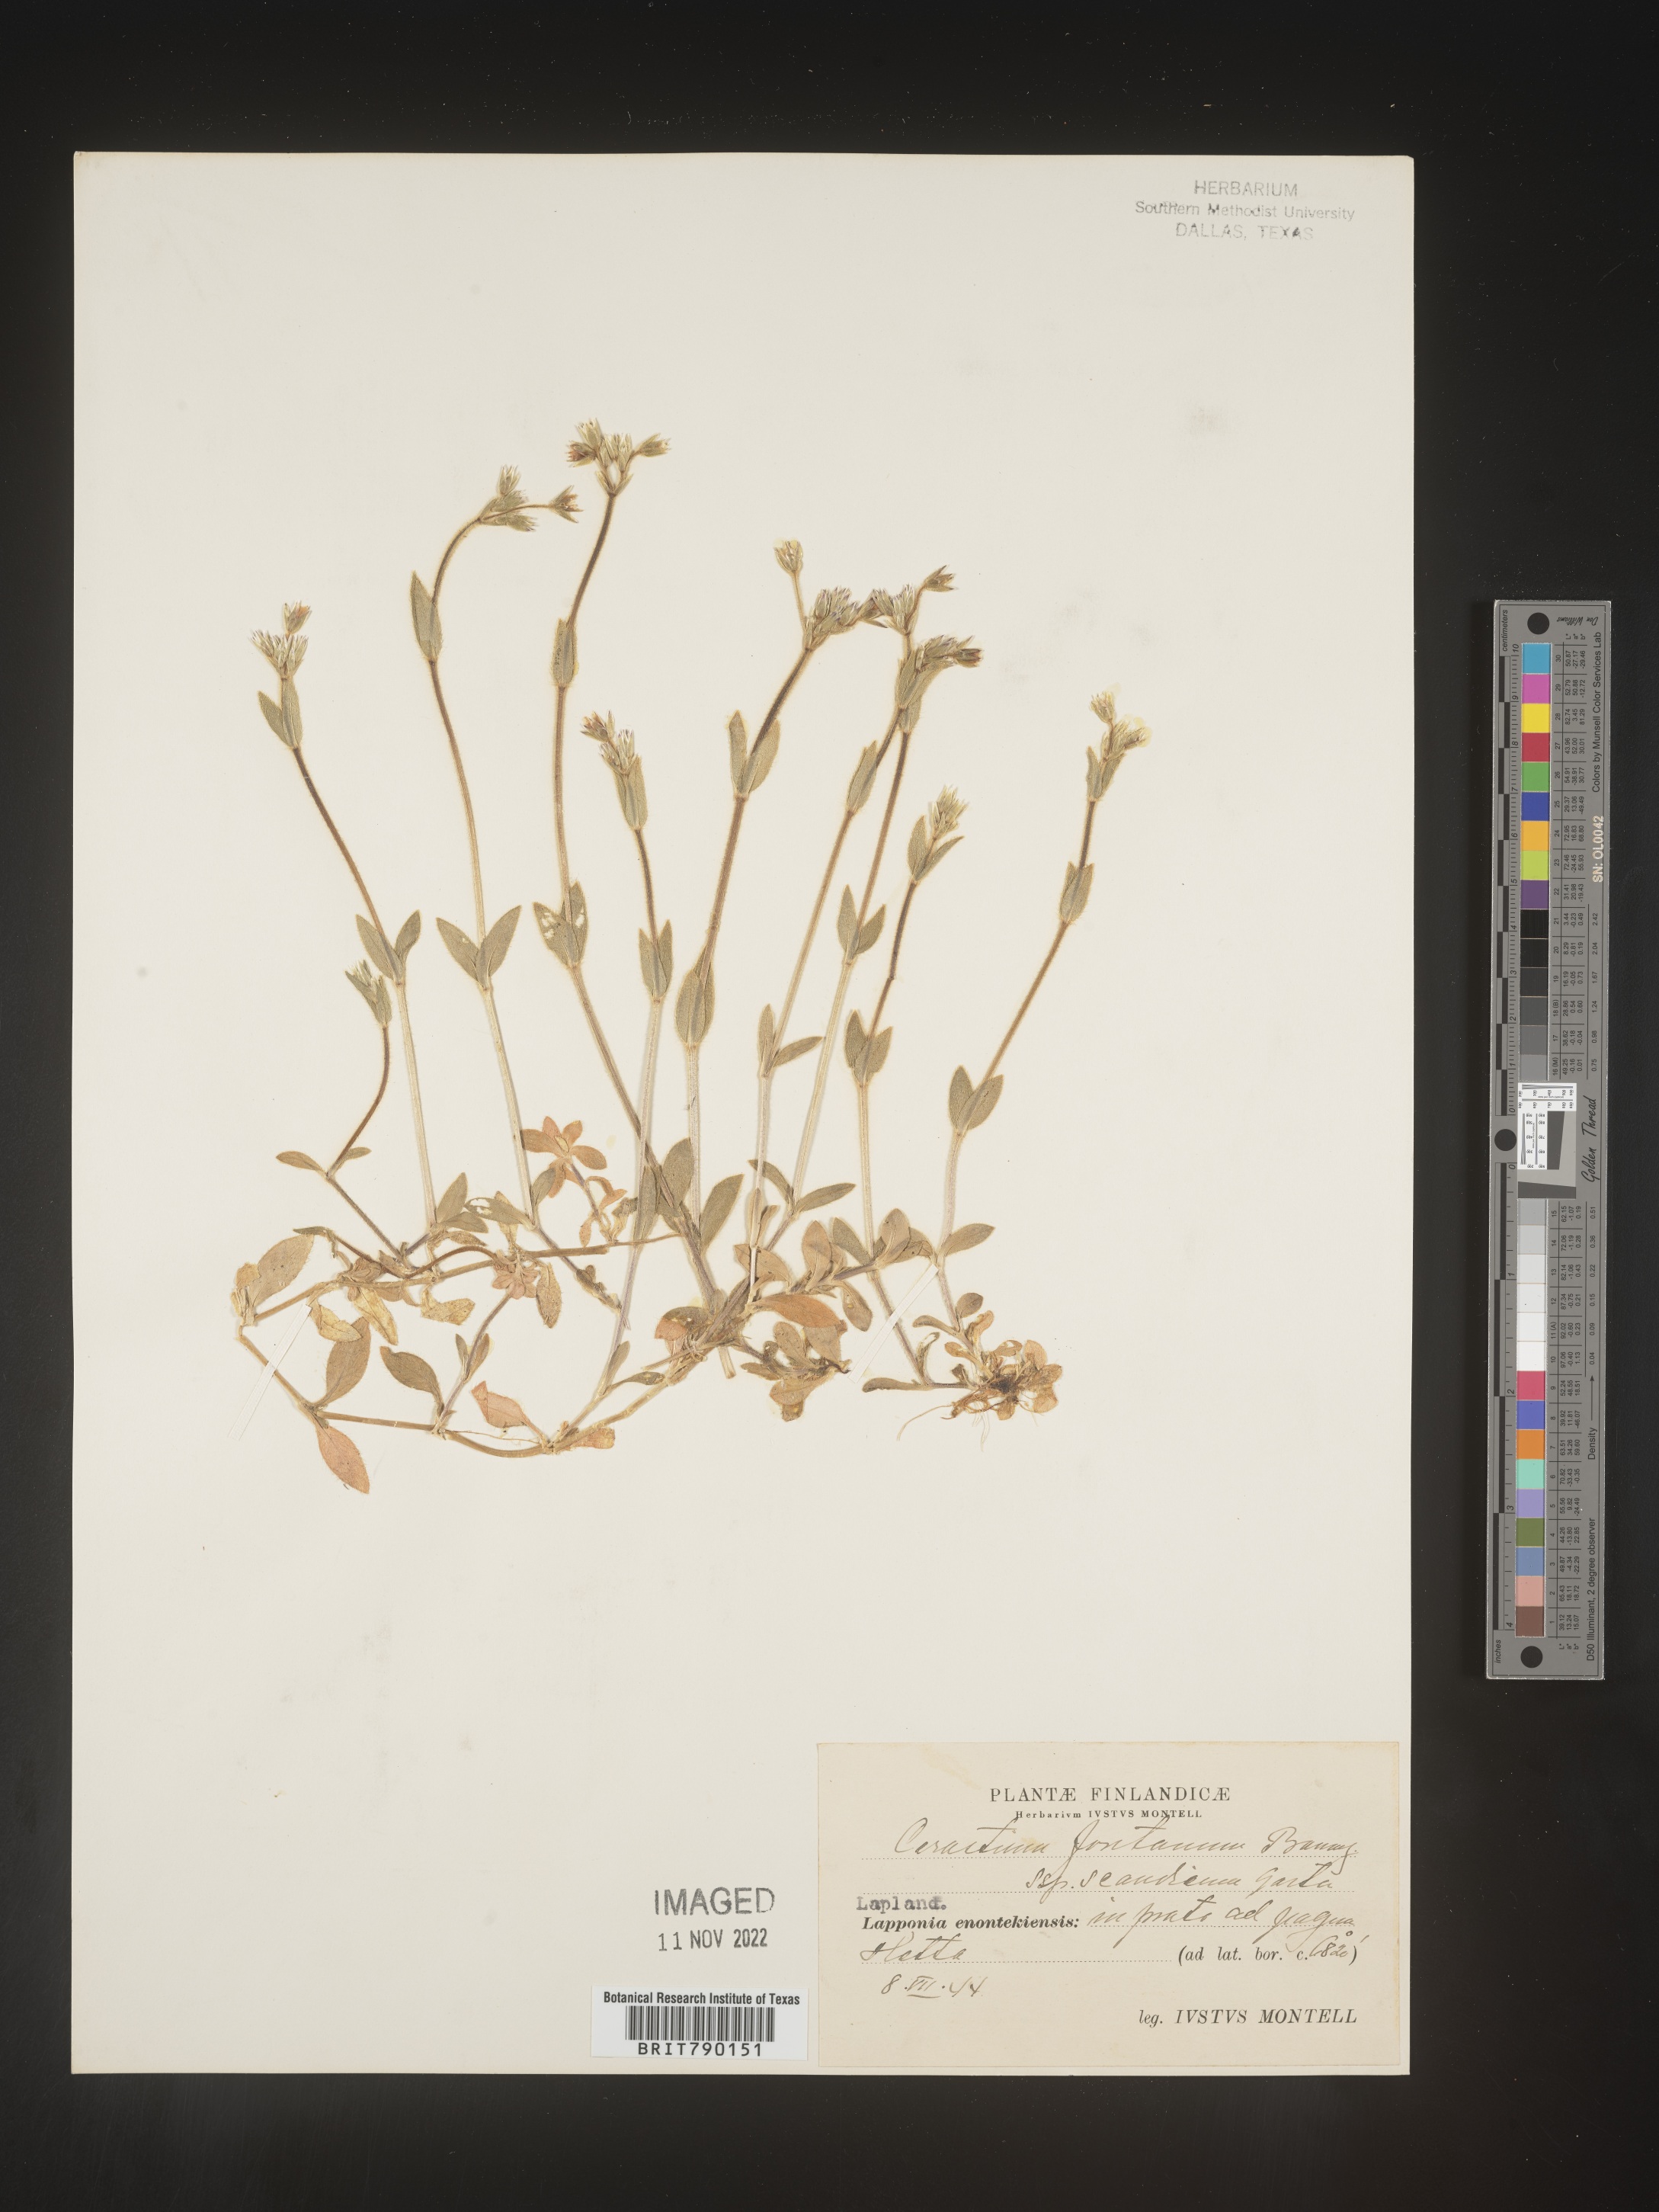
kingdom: Plantae
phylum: Tracheophyta
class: Magnoliopsida
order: Caryophyllales
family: Caryophyllaceae
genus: Cerastium
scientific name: Cerastium
